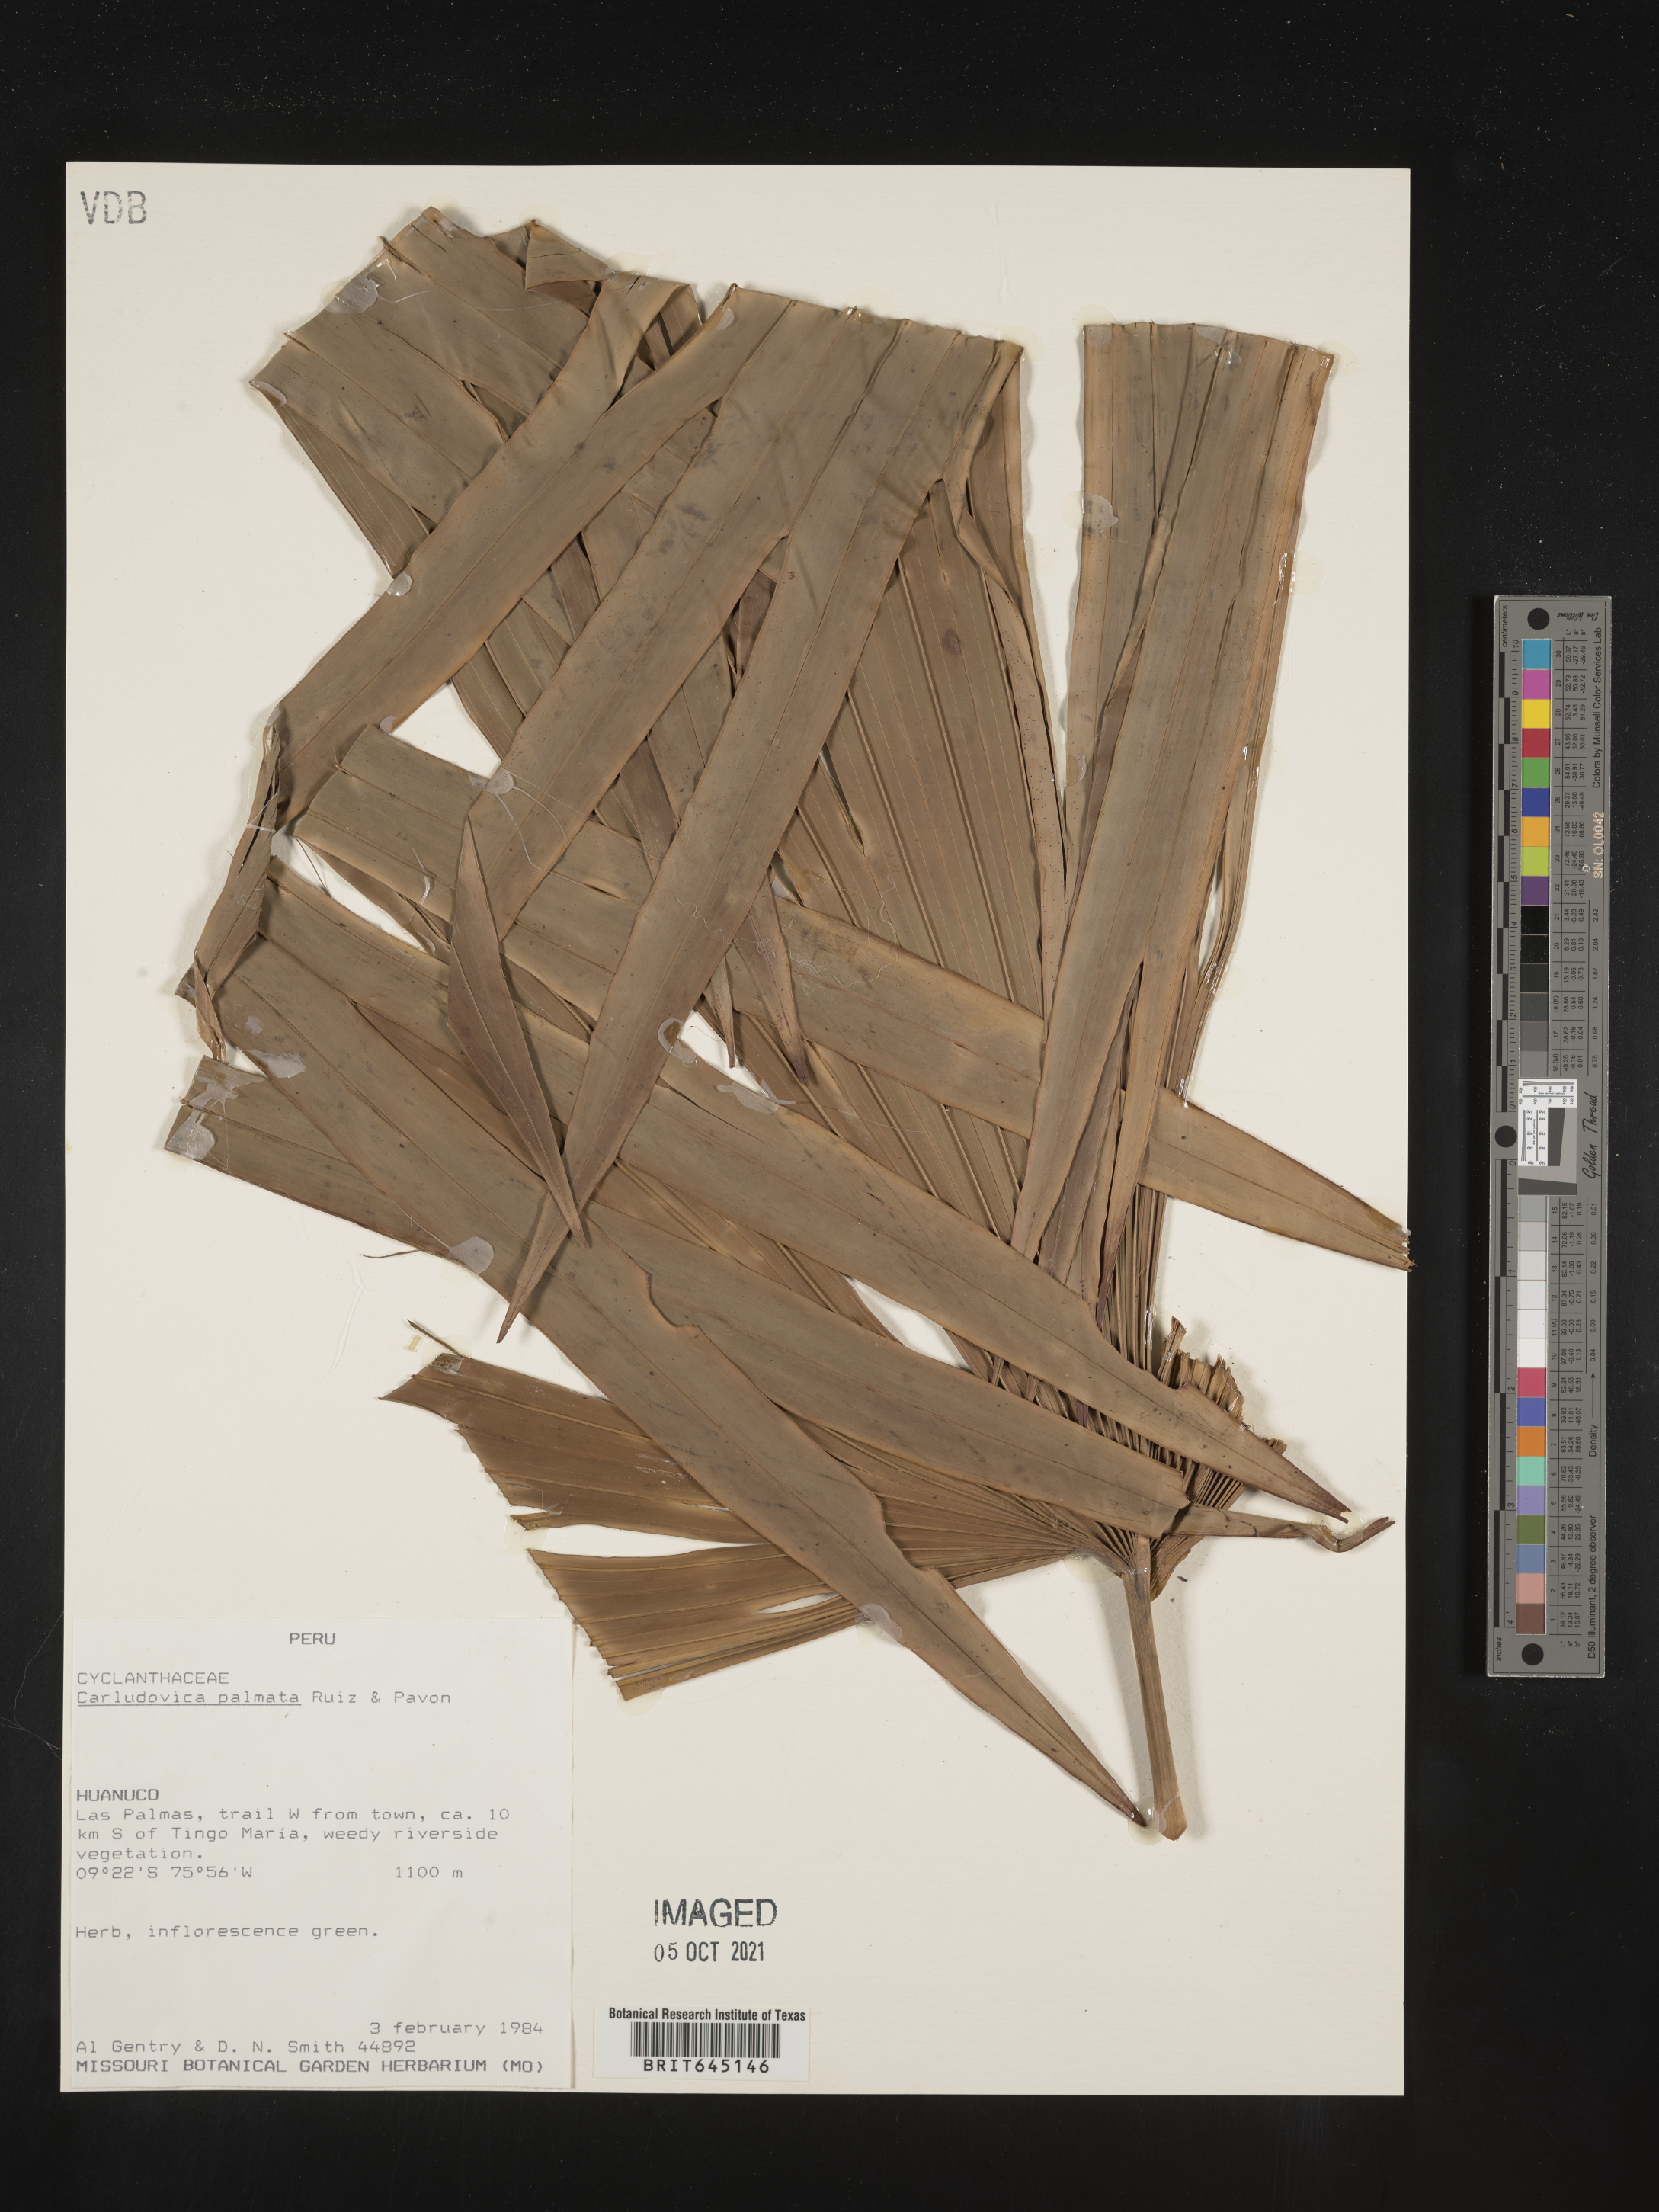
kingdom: Plantae
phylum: Tracheophyta
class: Liliopsida
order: Pandanales
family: Cyclanthaceae
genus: Carludovica
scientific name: Carludovica palmata
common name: Panama hat plant
